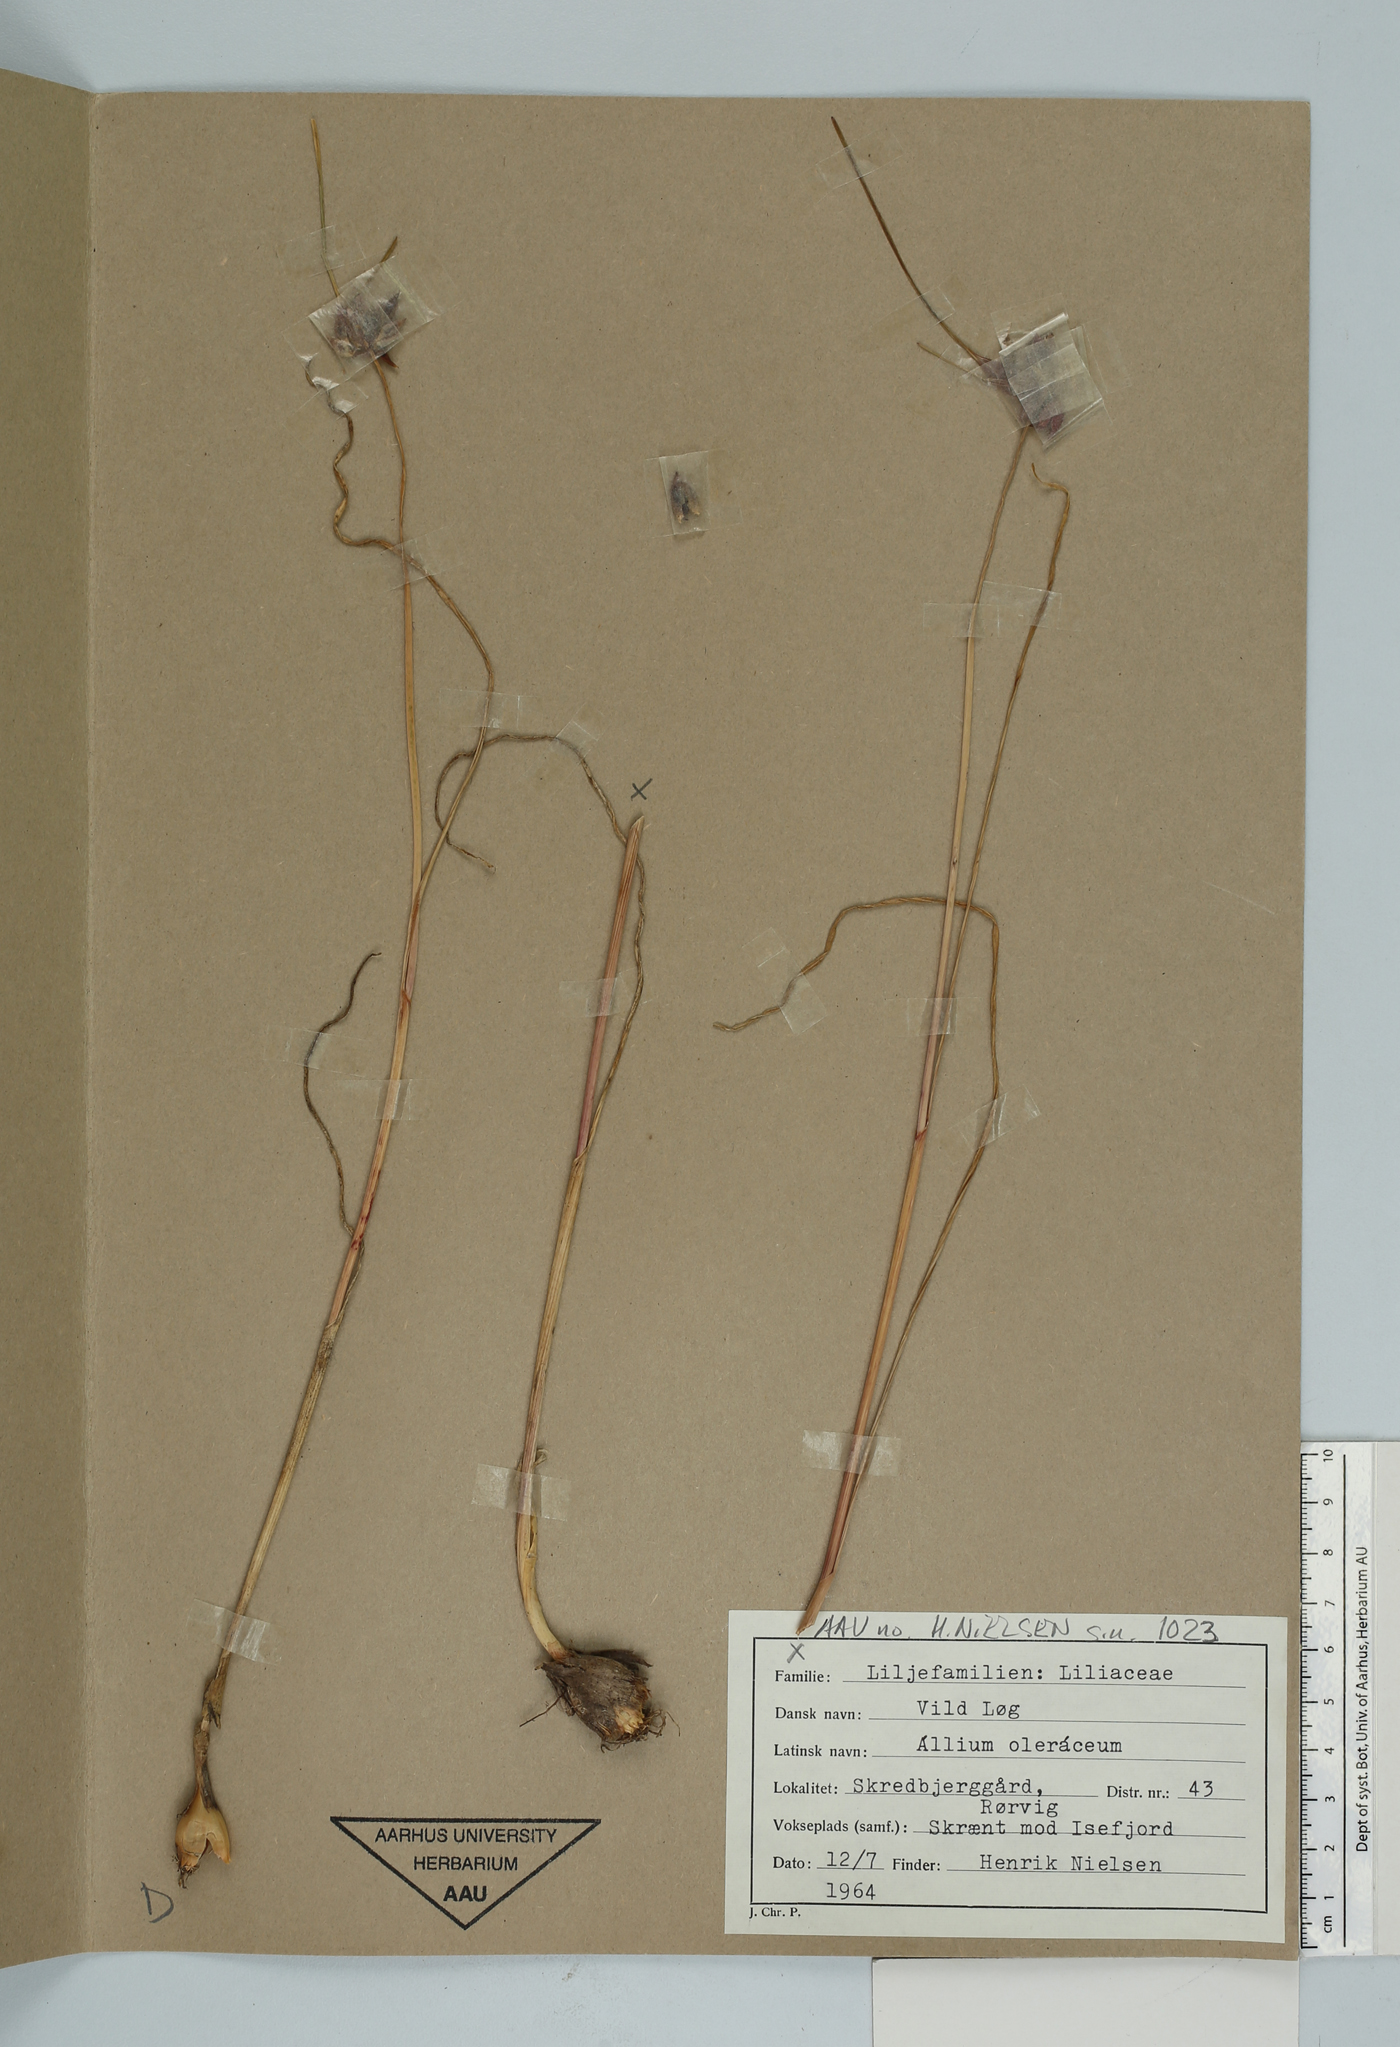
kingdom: Plantae
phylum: Tracheophyta
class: Liliopsida
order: Asparagales
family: Amaryllidaceae
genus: Allium
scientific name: Allium oleraceum
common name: Field garlic
